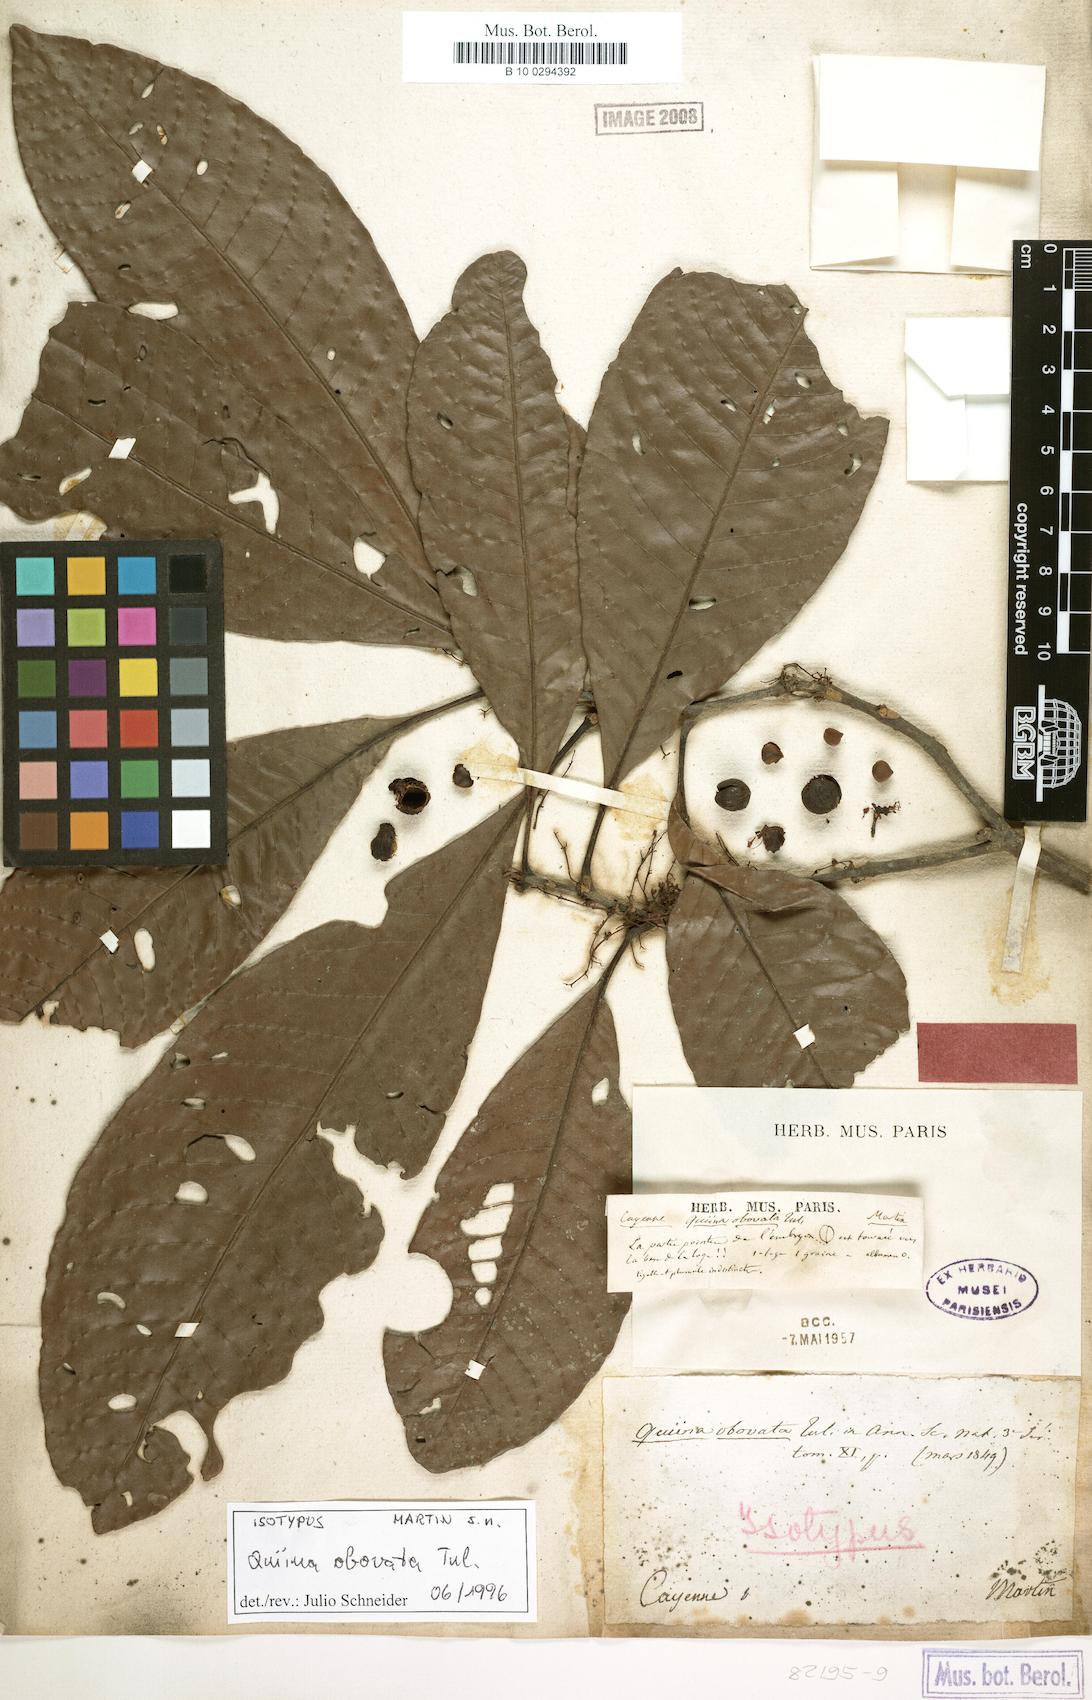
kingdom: Plantae
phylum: Tracheophyta
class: Magnoliopsida
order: Malpighiales
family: Quiinaceae
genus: Quiina
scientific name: Quiina obovata
